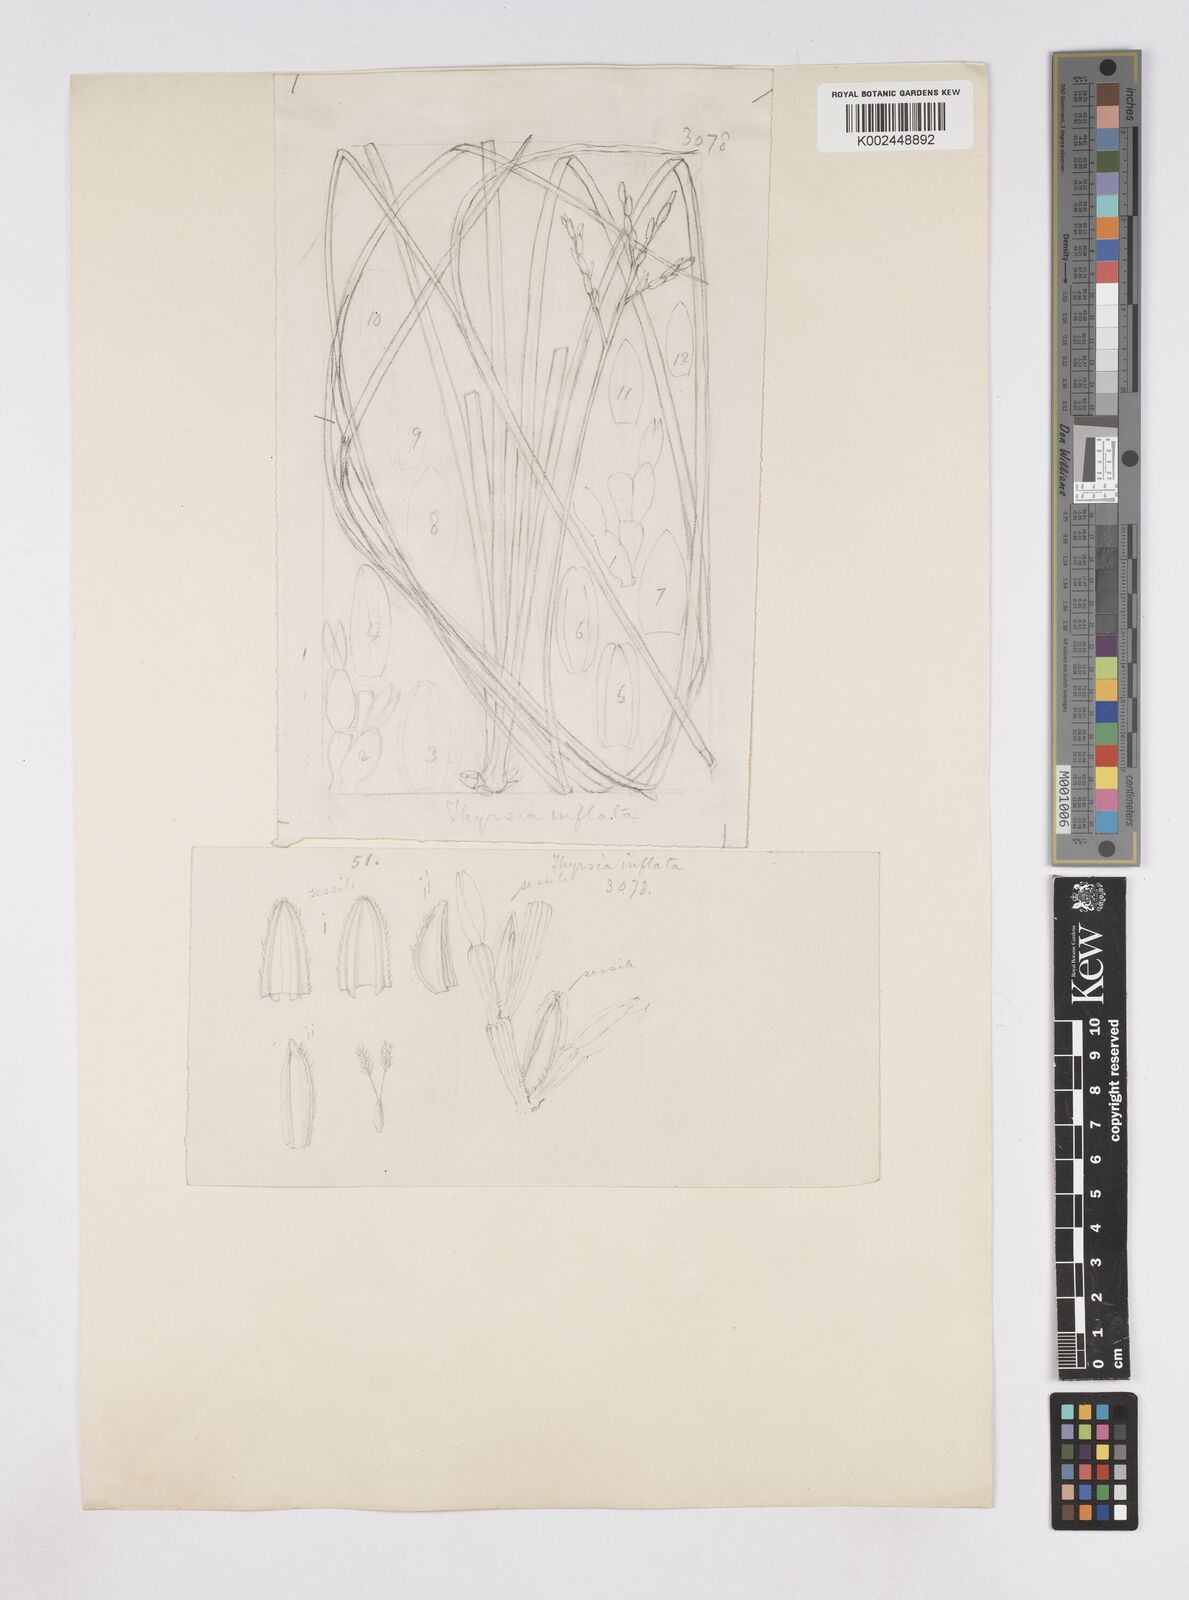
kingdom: Plantae
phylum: Tracheophyta
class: Liliopsida
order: Poales
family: Poaceae
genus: Thyrsia
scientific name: Thyrsia huillensis
